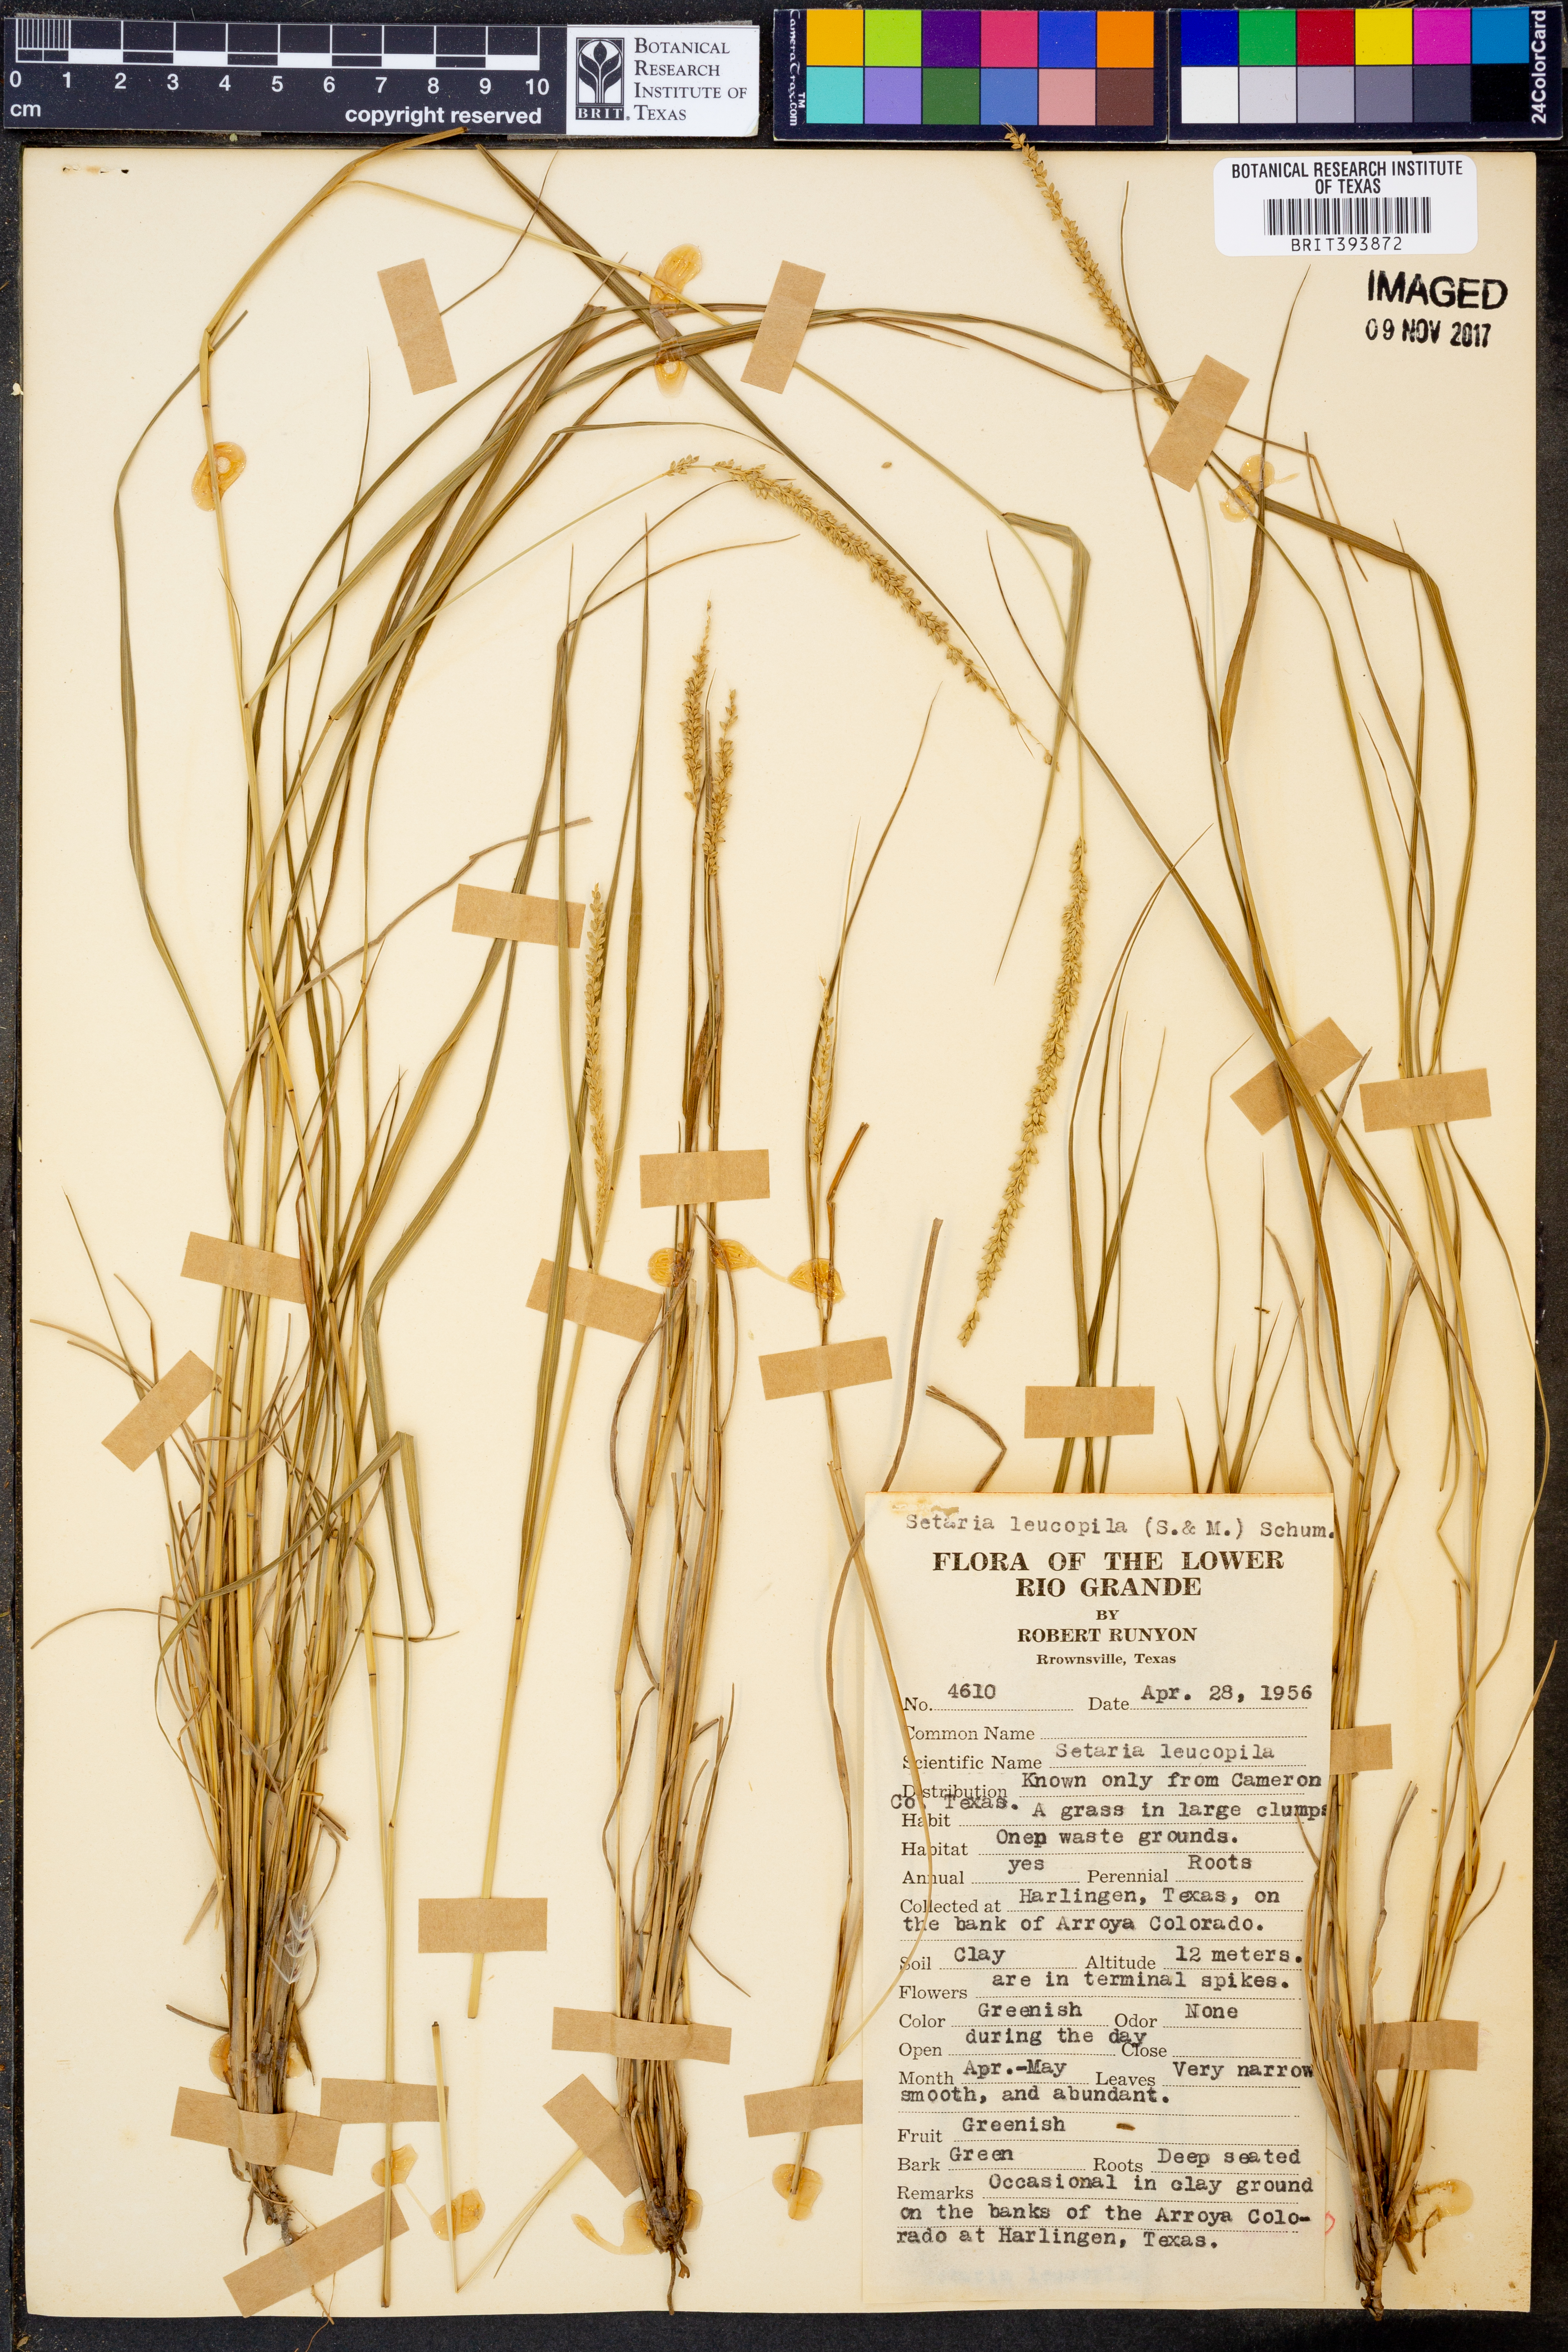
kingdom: Plantae
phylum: Tracheophyta
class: Liliopsida
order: Poales
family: Poaceae
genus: Setaria
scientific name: Setaria leucopila
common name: Plains bristle grass
